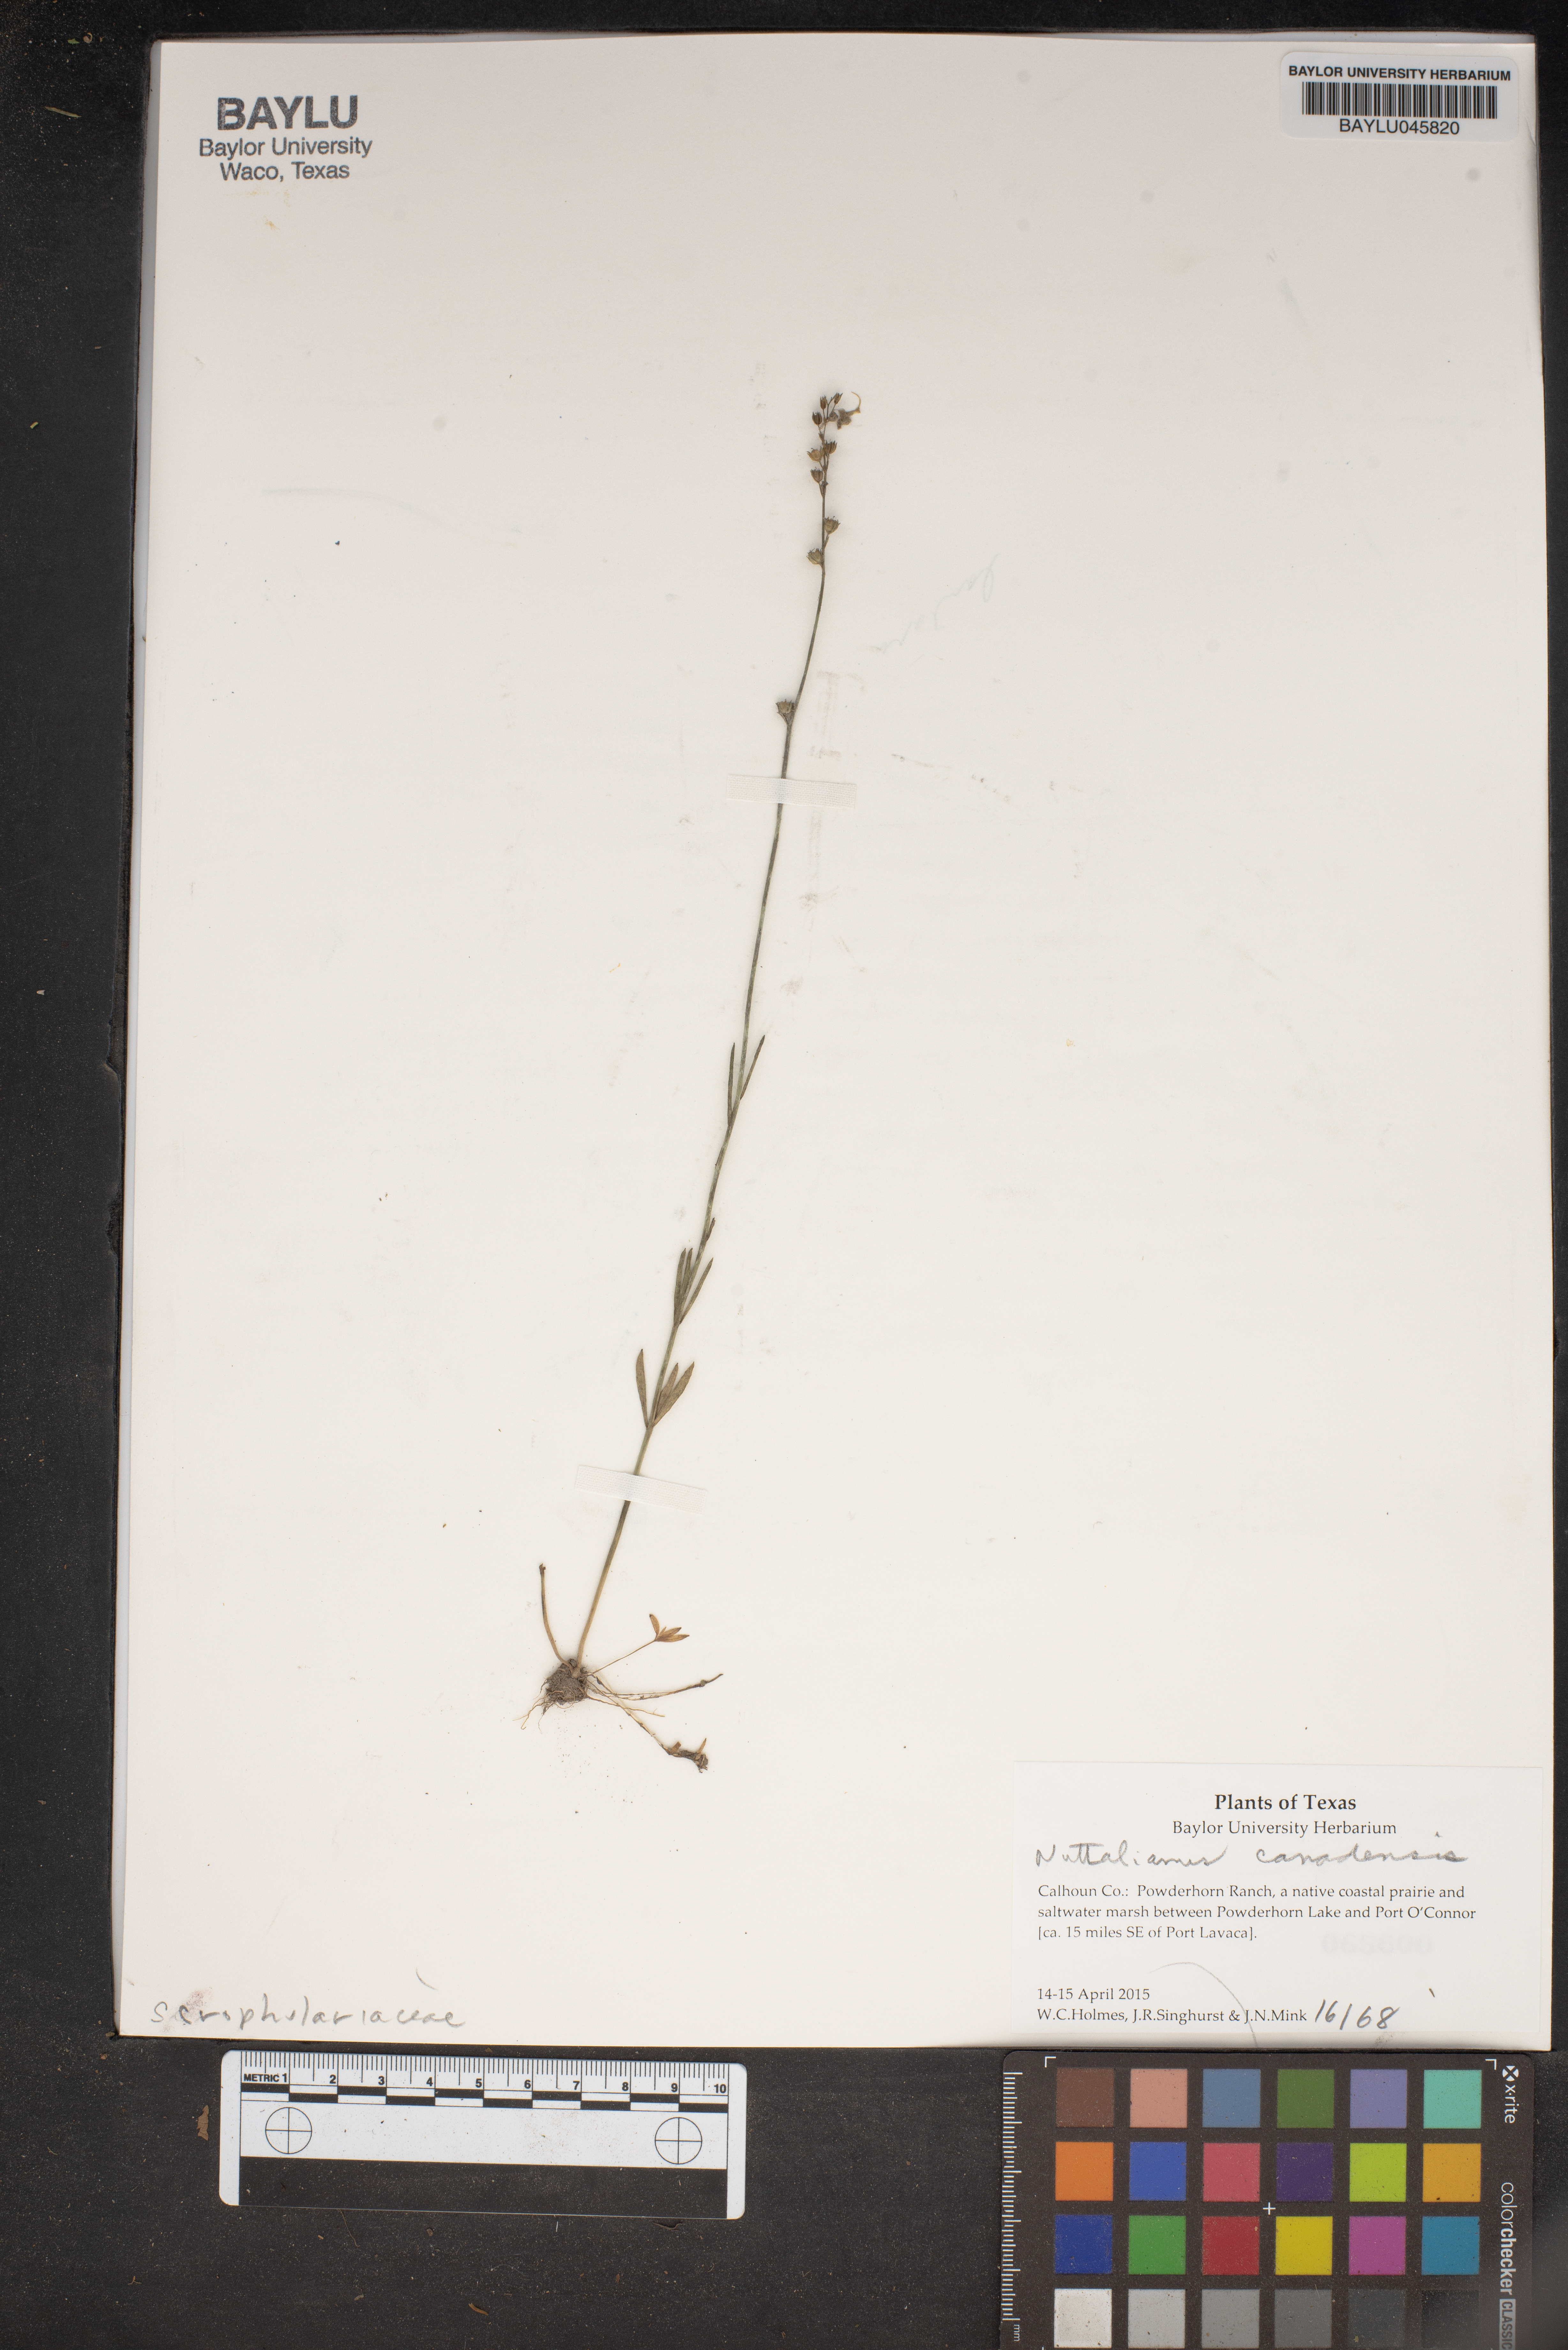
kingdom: Plantae
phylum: Tracheophyta
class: Magnoliopsida
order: Lamiales
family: Plantaginaceae
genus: Nuttallanthus
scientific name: Nuttallanthus canadensis
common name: Blue toadflax
